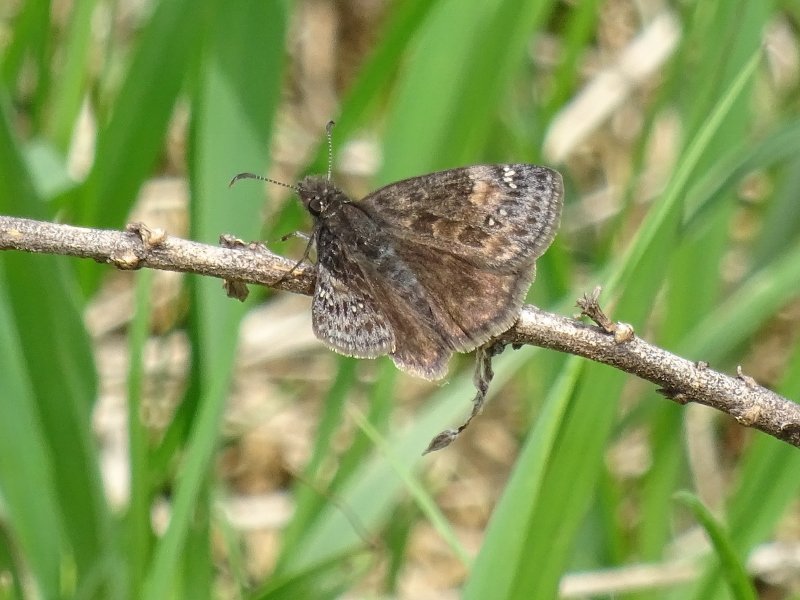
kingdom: Animalia
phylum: Arthropoda
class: Insecta
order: Lepidoptera
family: Hesperiidae
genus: Gesta
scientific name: Gesta
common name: Wild Indigo Duskywing
